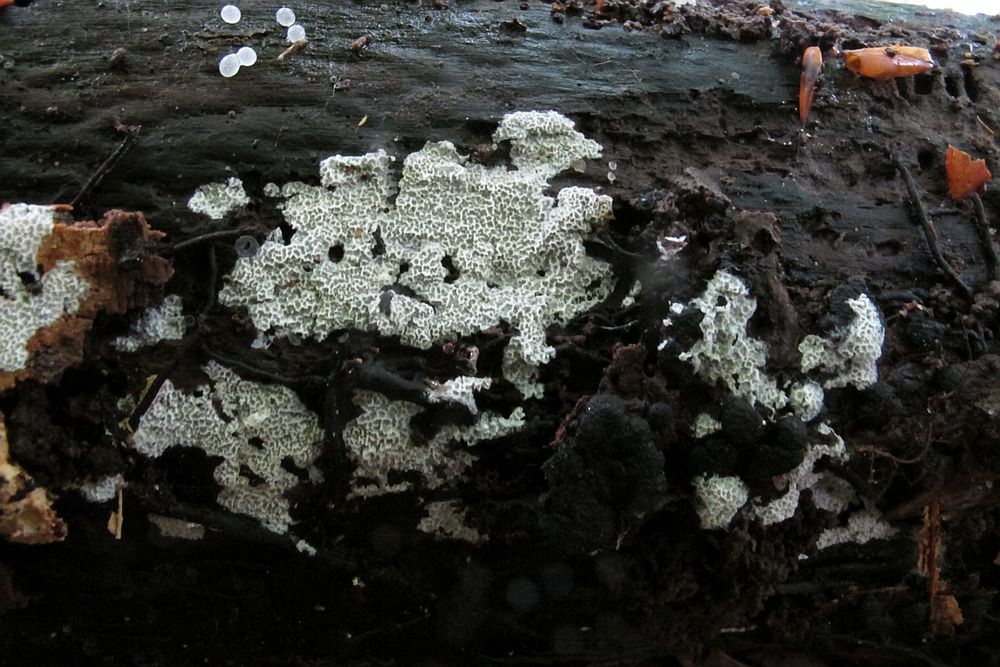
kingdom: Fungi
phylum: Basidiomycota
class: Agaricomycetes
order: Polyporales
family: Irpicaceae
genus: Ceriporia
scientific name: Ceriporia reticulata
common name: netagtig voksporesvamp
